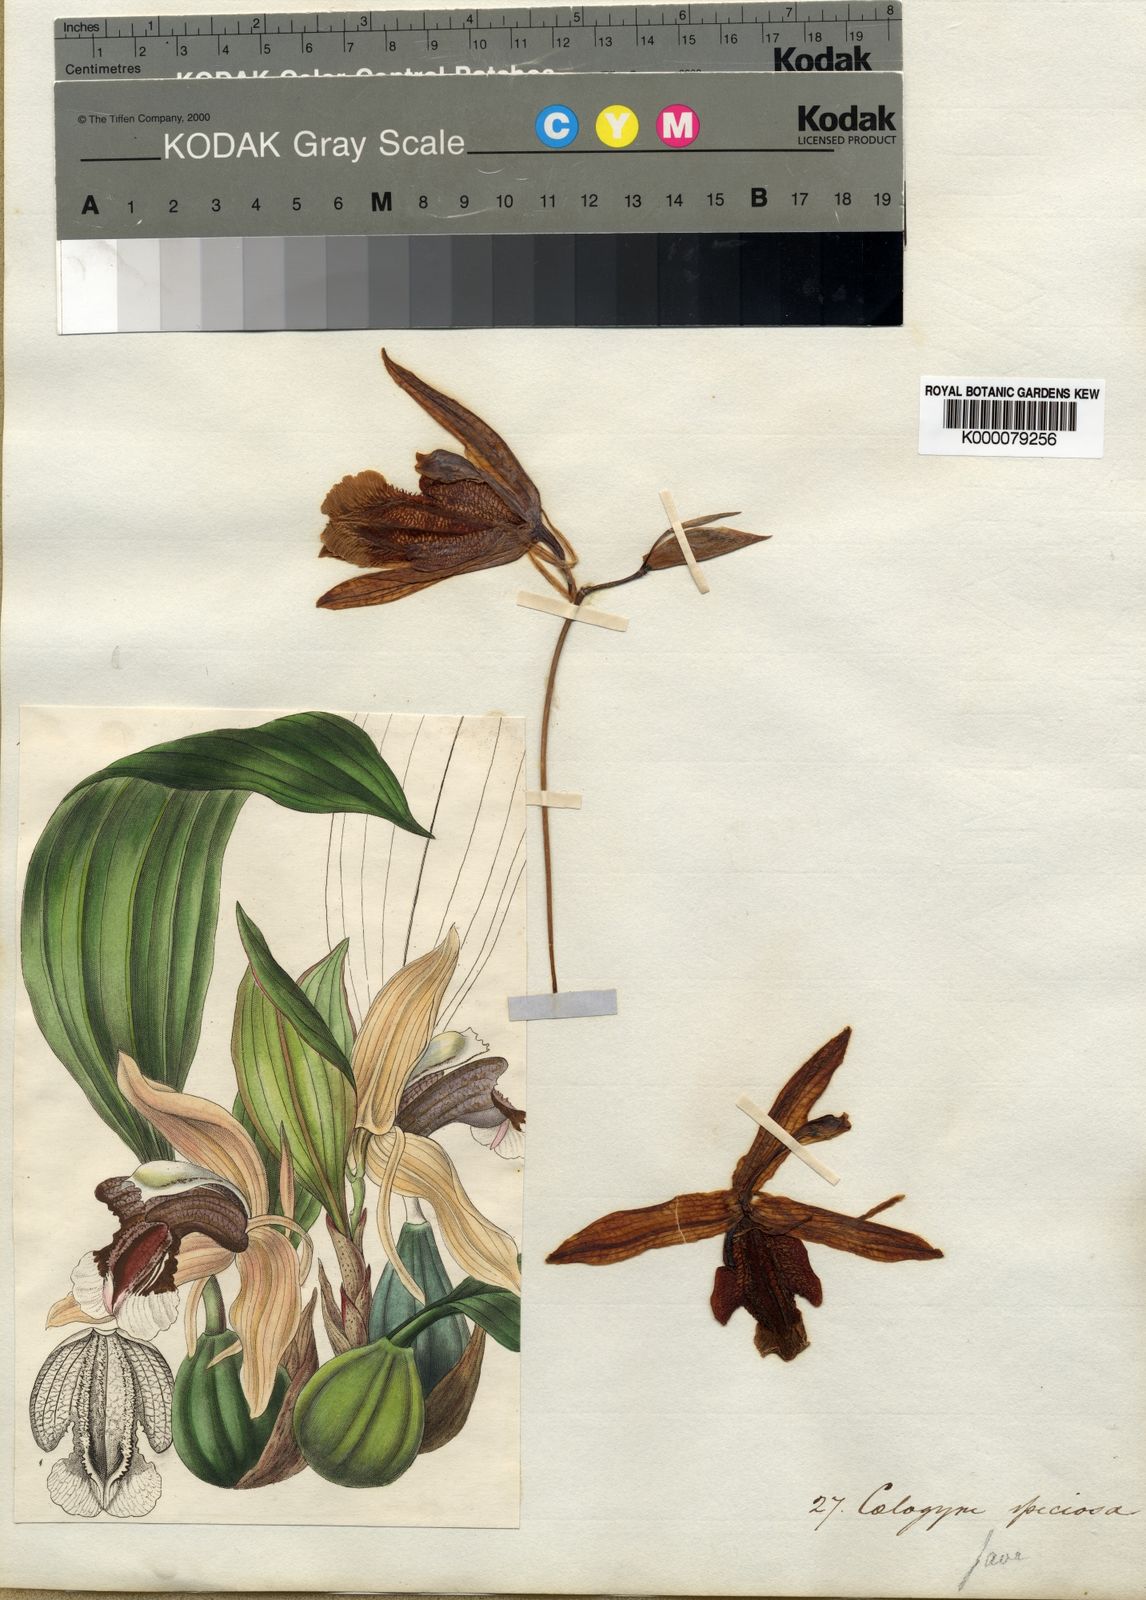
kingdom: Plantae
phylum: Tracheophyta
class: Liliopsida
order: Asparagales
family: Orchidaceae
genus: Coelogyne
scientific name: Coelogyne speciosa
